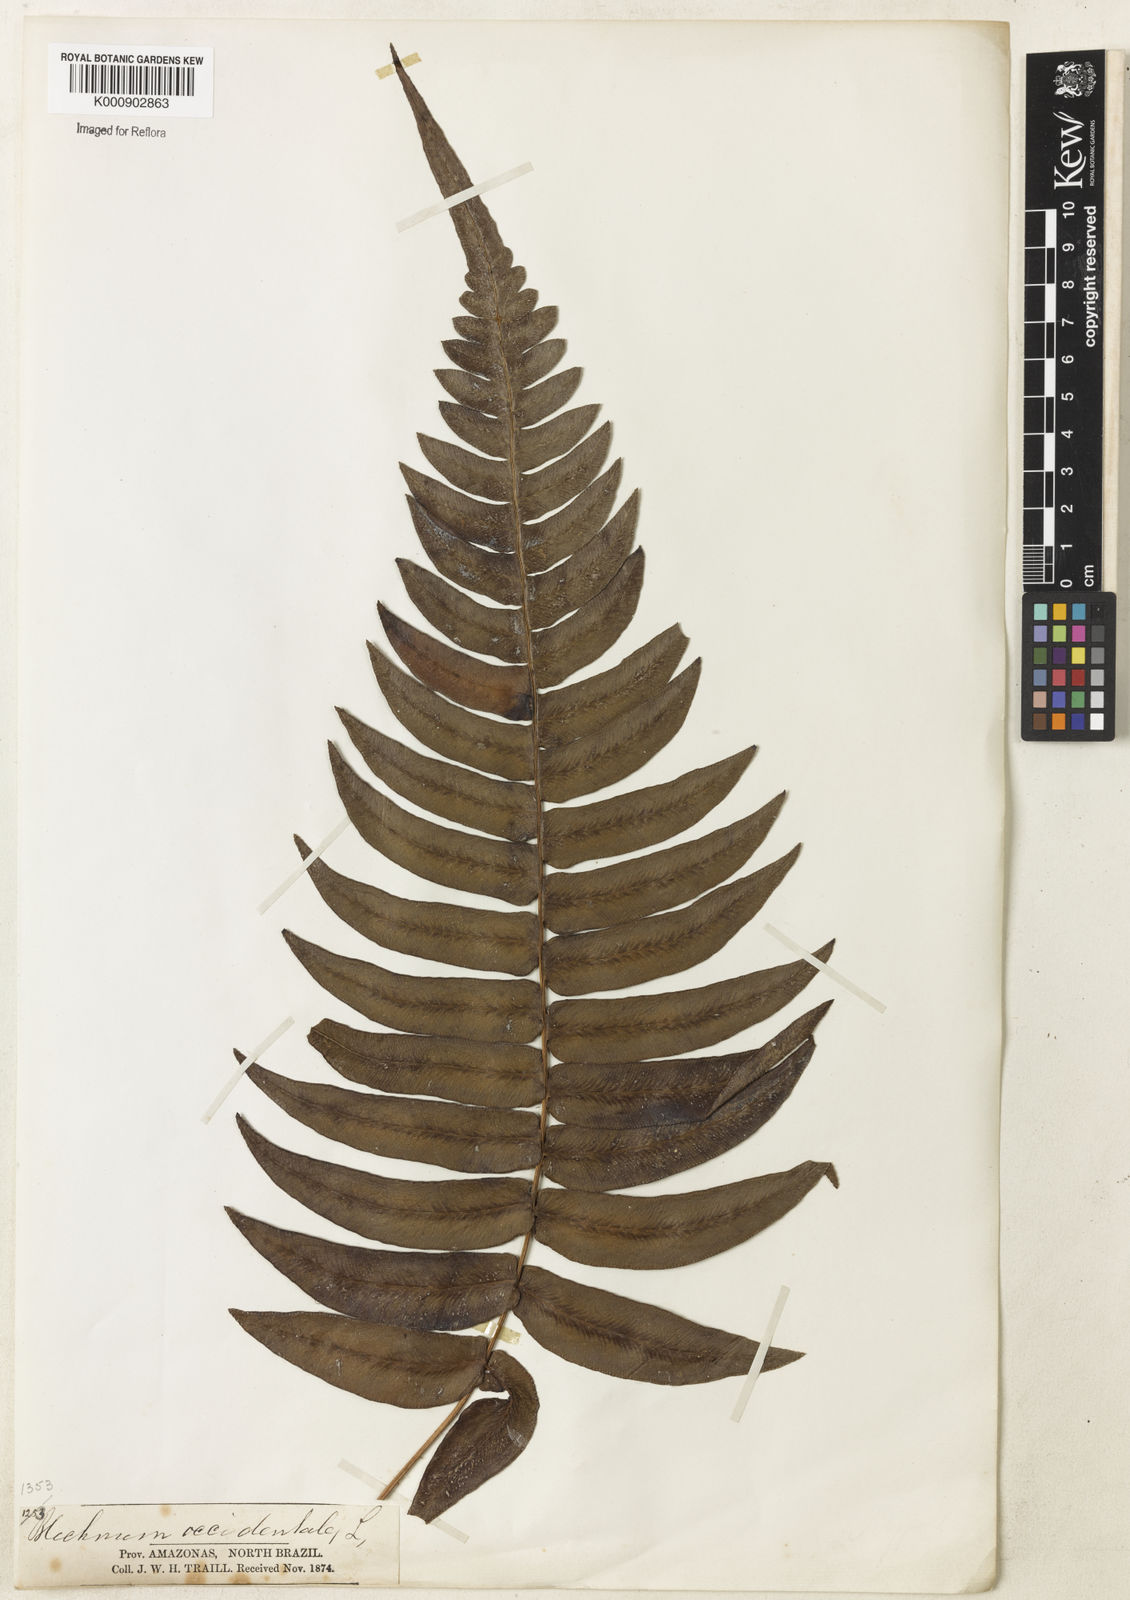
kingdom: Plantae
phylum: Tracheophyta
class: Polypodiopsida
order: Polypodiales
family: Blechnaceae
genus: Blechnum
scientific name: Blechnum occidentale
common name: Hammock fern
